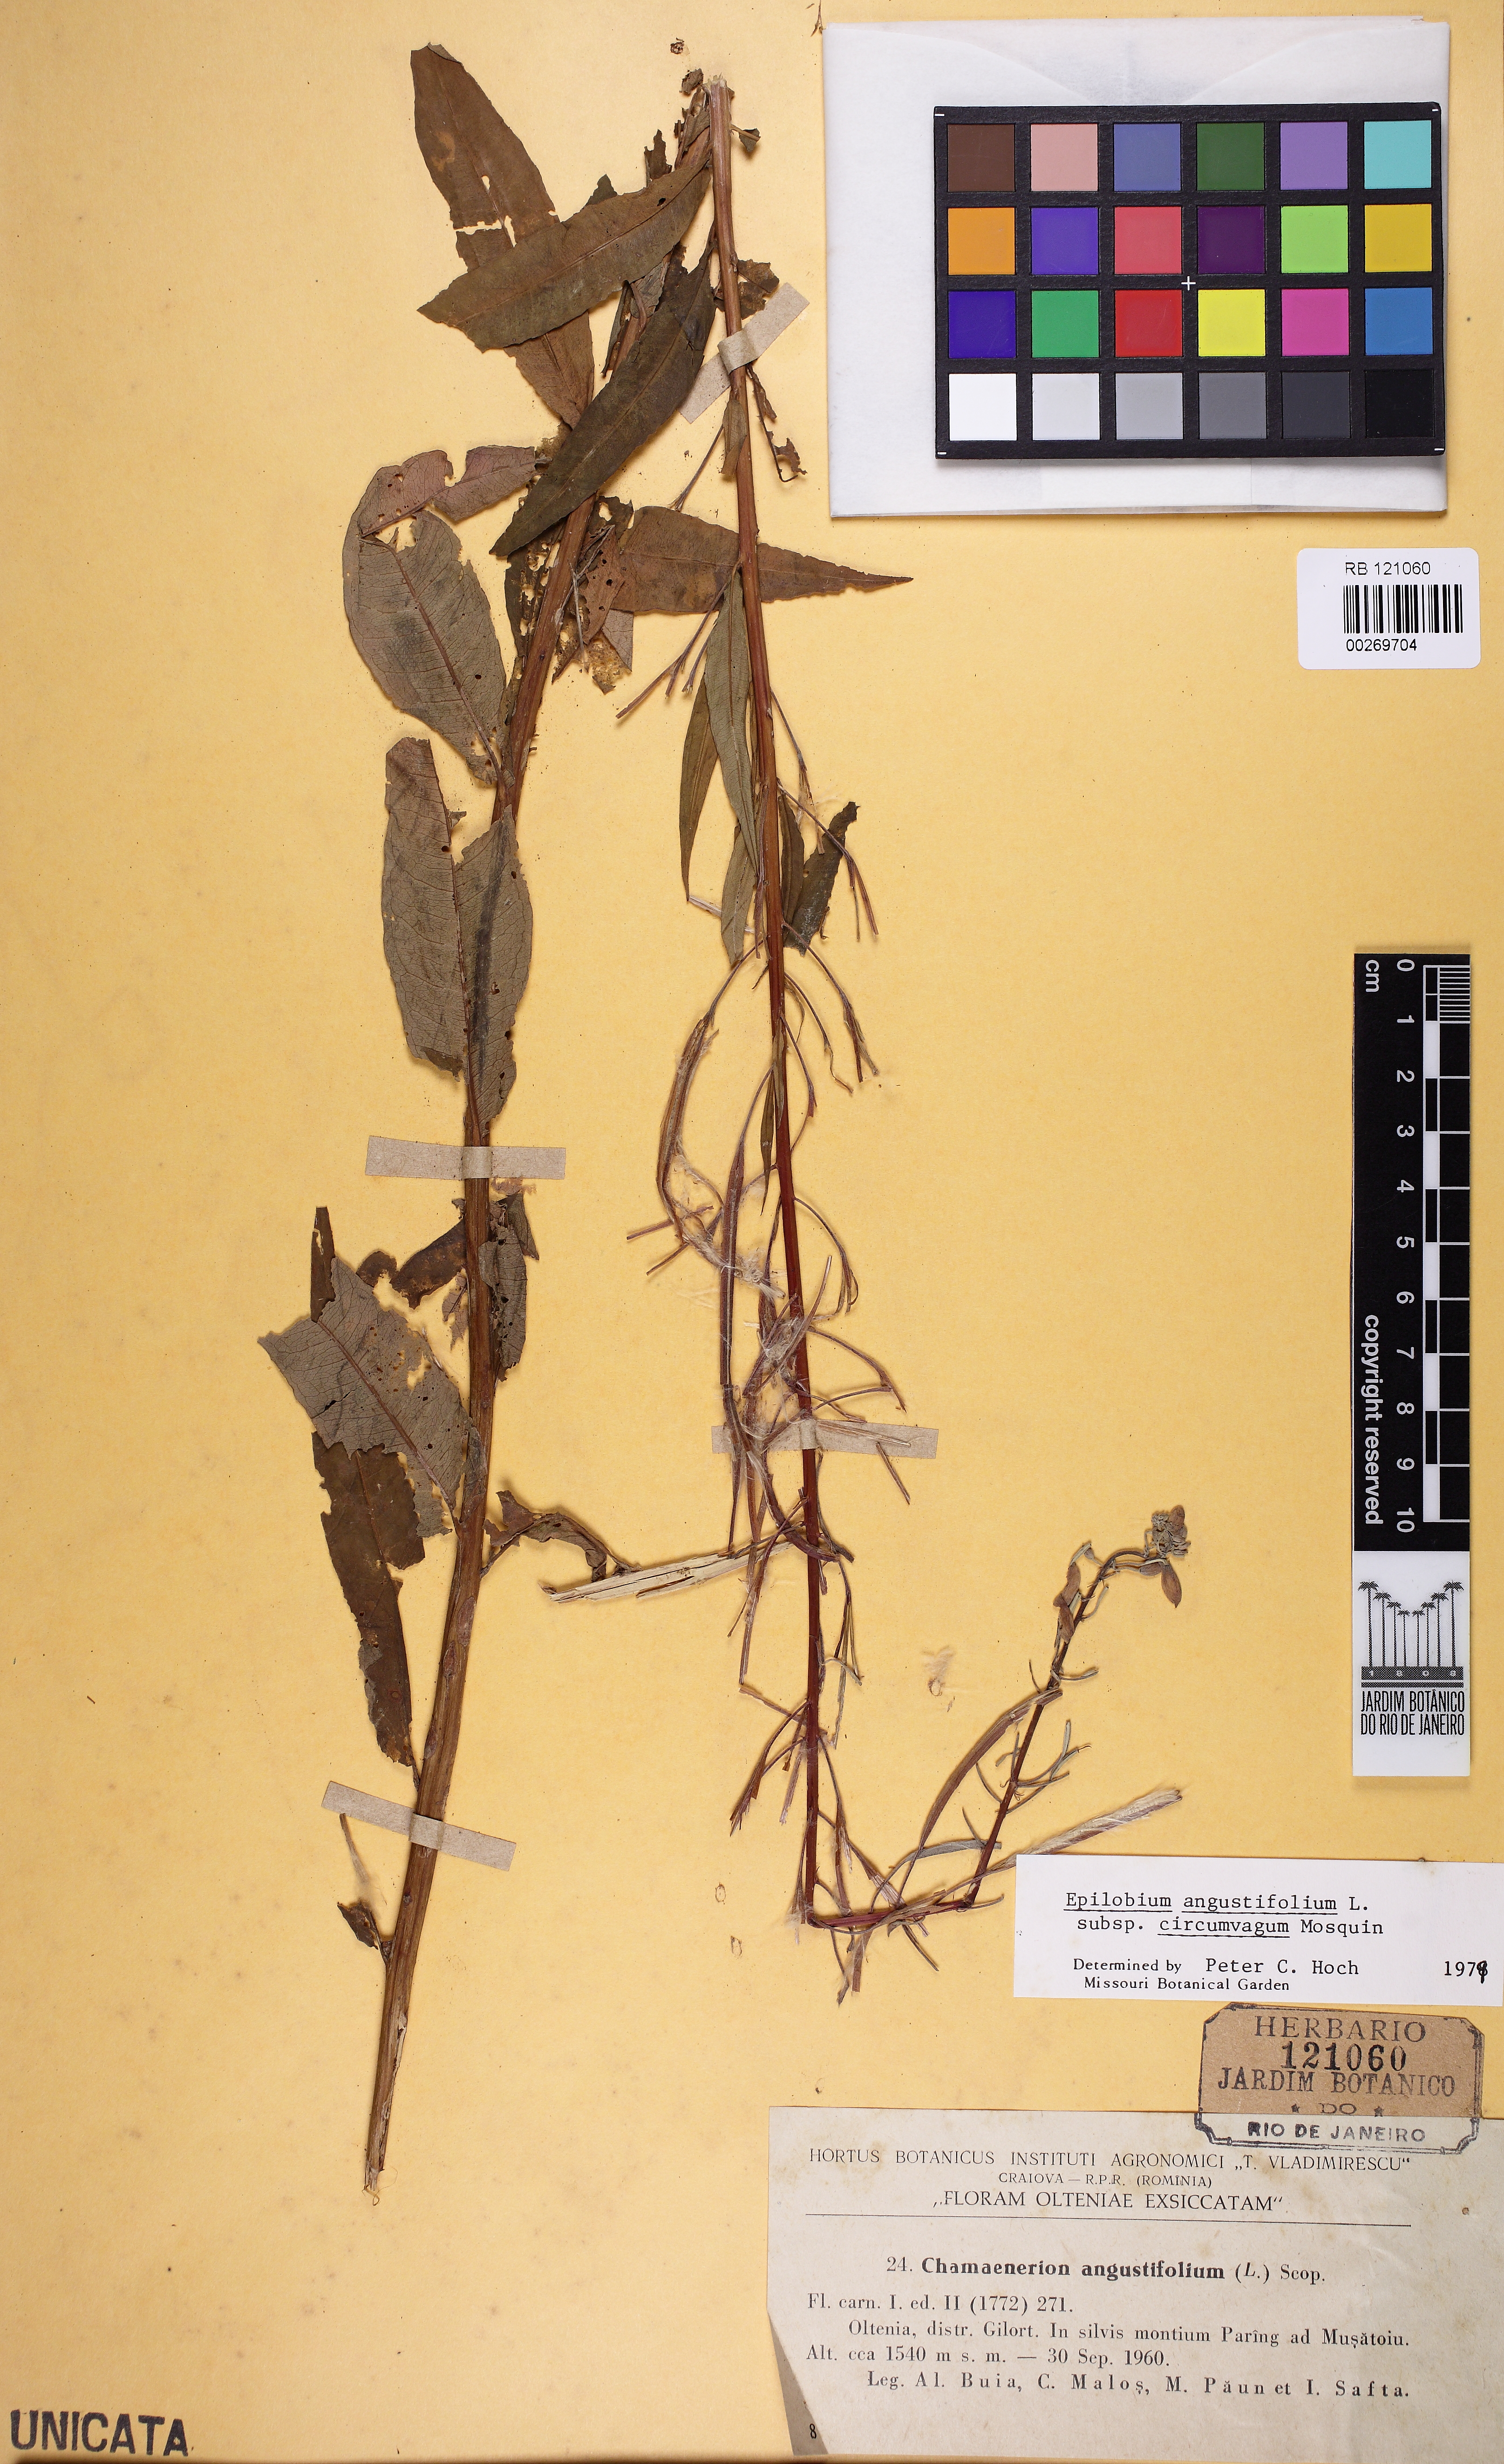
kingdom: Plantae
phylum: Tracheophyta
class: Magnoliopsida
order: Myrtales
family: Onagraceae
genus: Chamaenerion
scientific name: Chamaenerion angustifolium
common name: Fireweed
